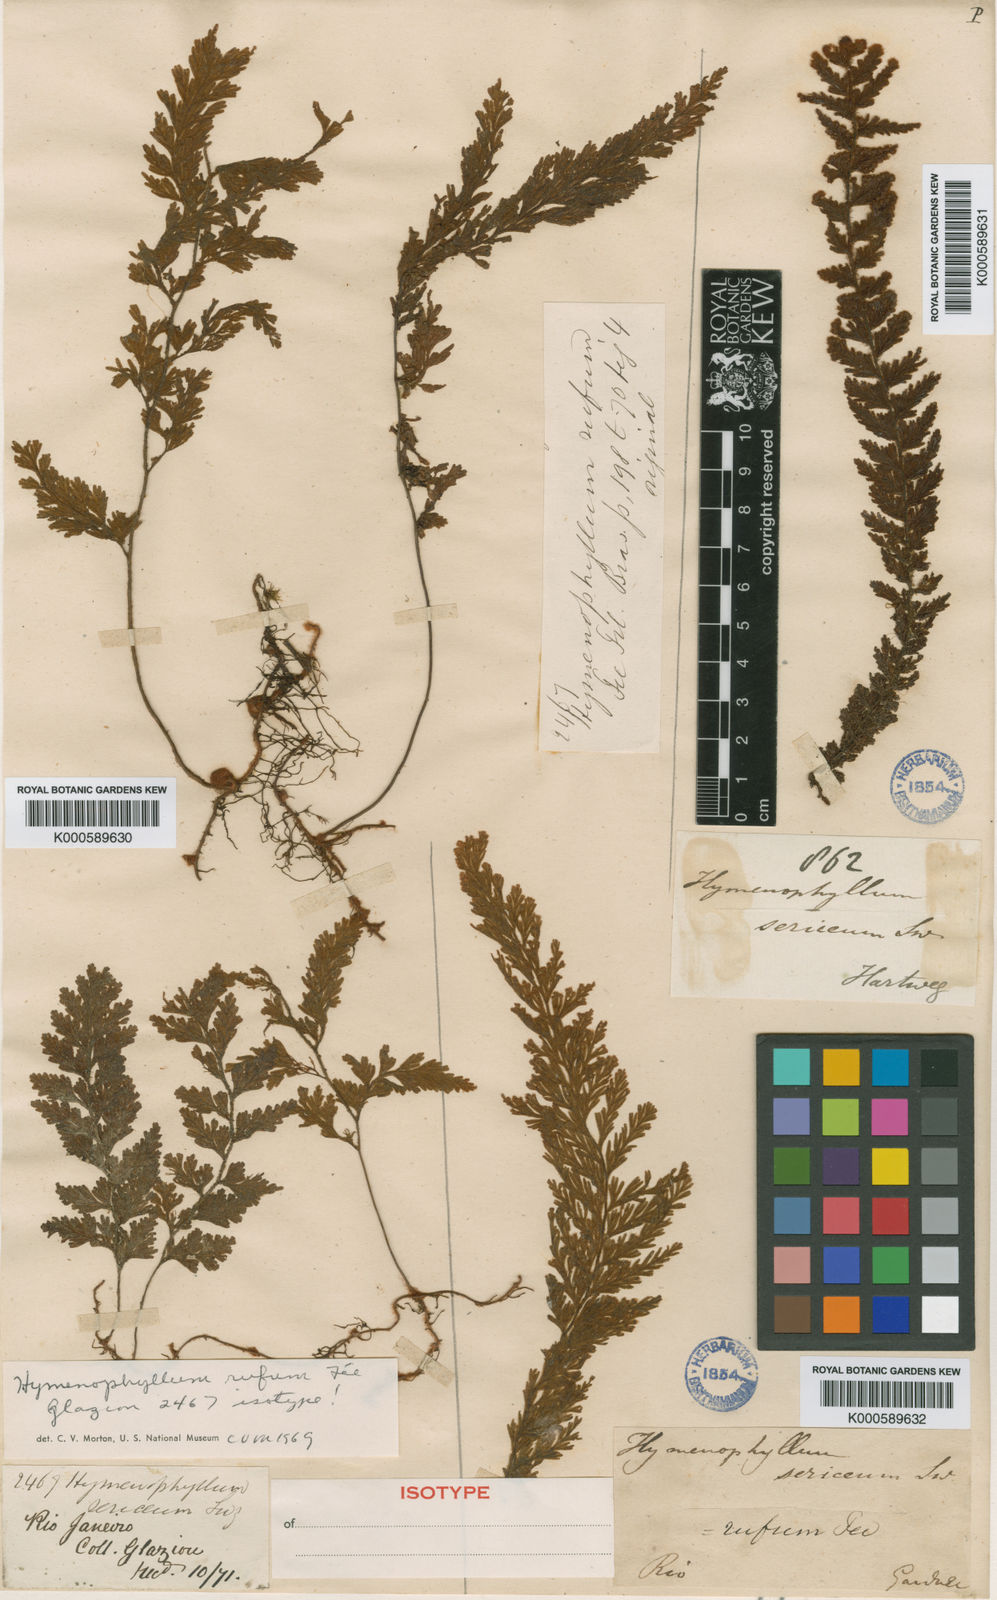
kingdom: Plantae
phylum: Tracheophyta
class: Polypodiopsida
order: Hymenophyllales
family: Hymenophyllaceae
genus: Hymenophyllum
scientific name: Hymenophyllum
